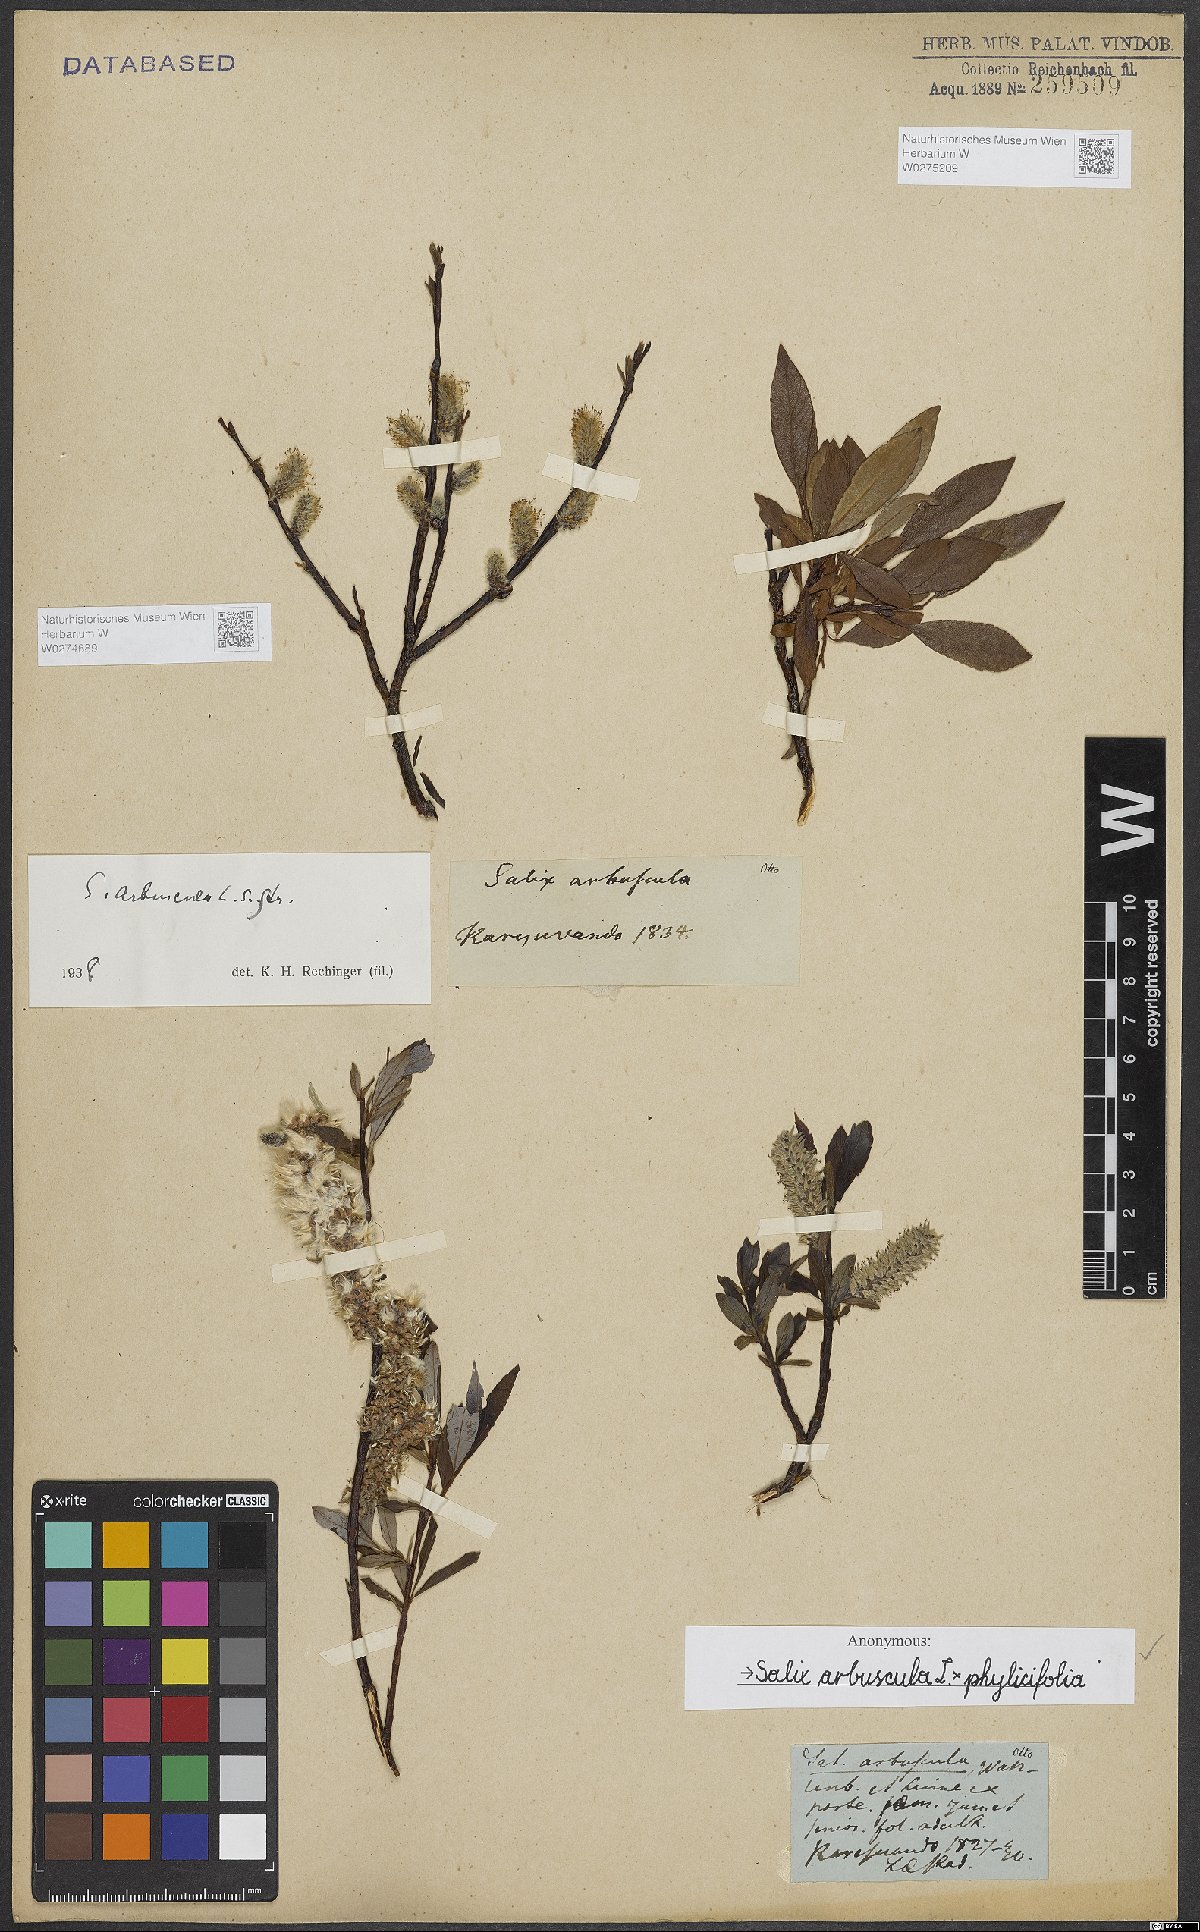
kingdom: Plantae
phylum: Tracheophyta
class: Magnoliopsida
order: Malpighiales
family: Salicaceae
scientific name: Salicaceae
